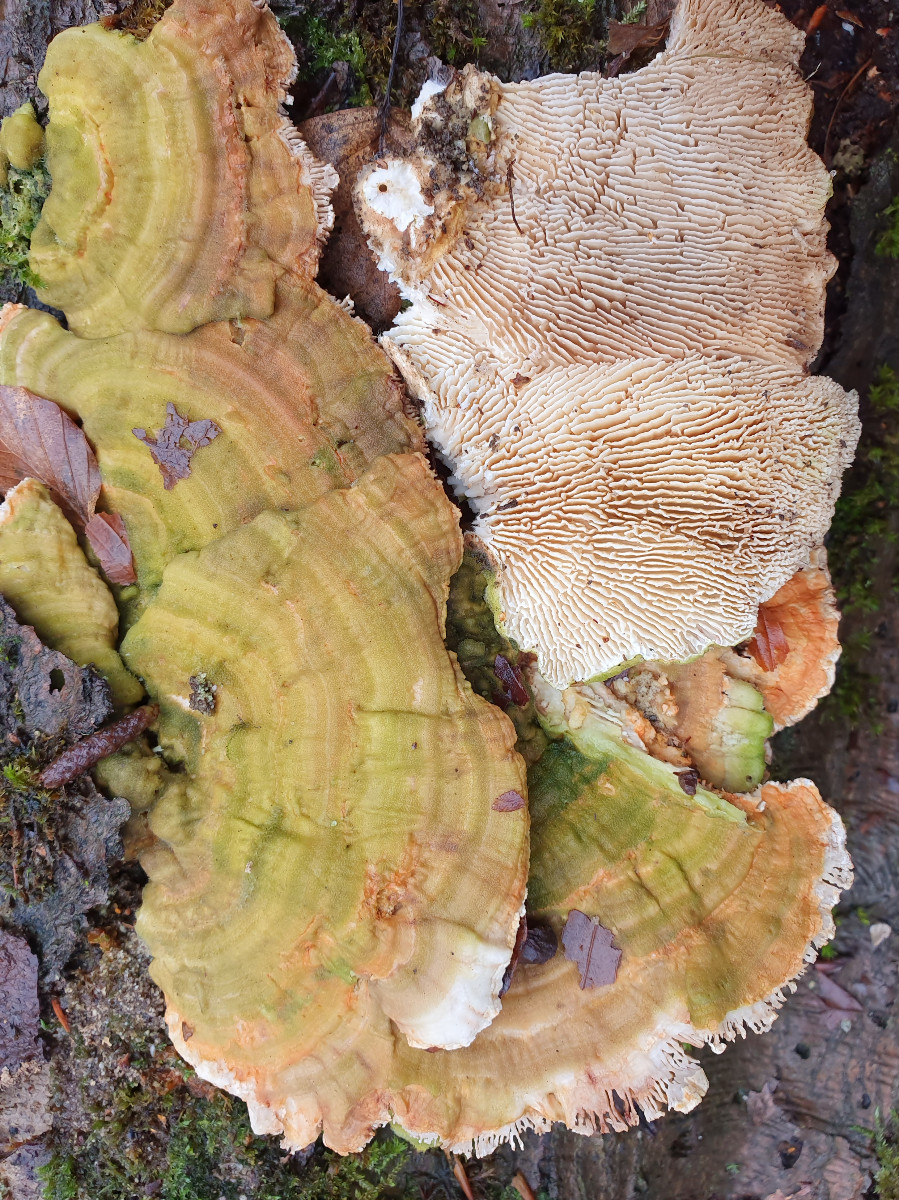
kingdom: Fungi
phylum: Basidiomycota
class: Agaricomycetes
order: Polyporales
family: Polyporaceae
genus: Lenzites
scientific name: Lenzites betulinus
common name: birke-læderporesvamp
